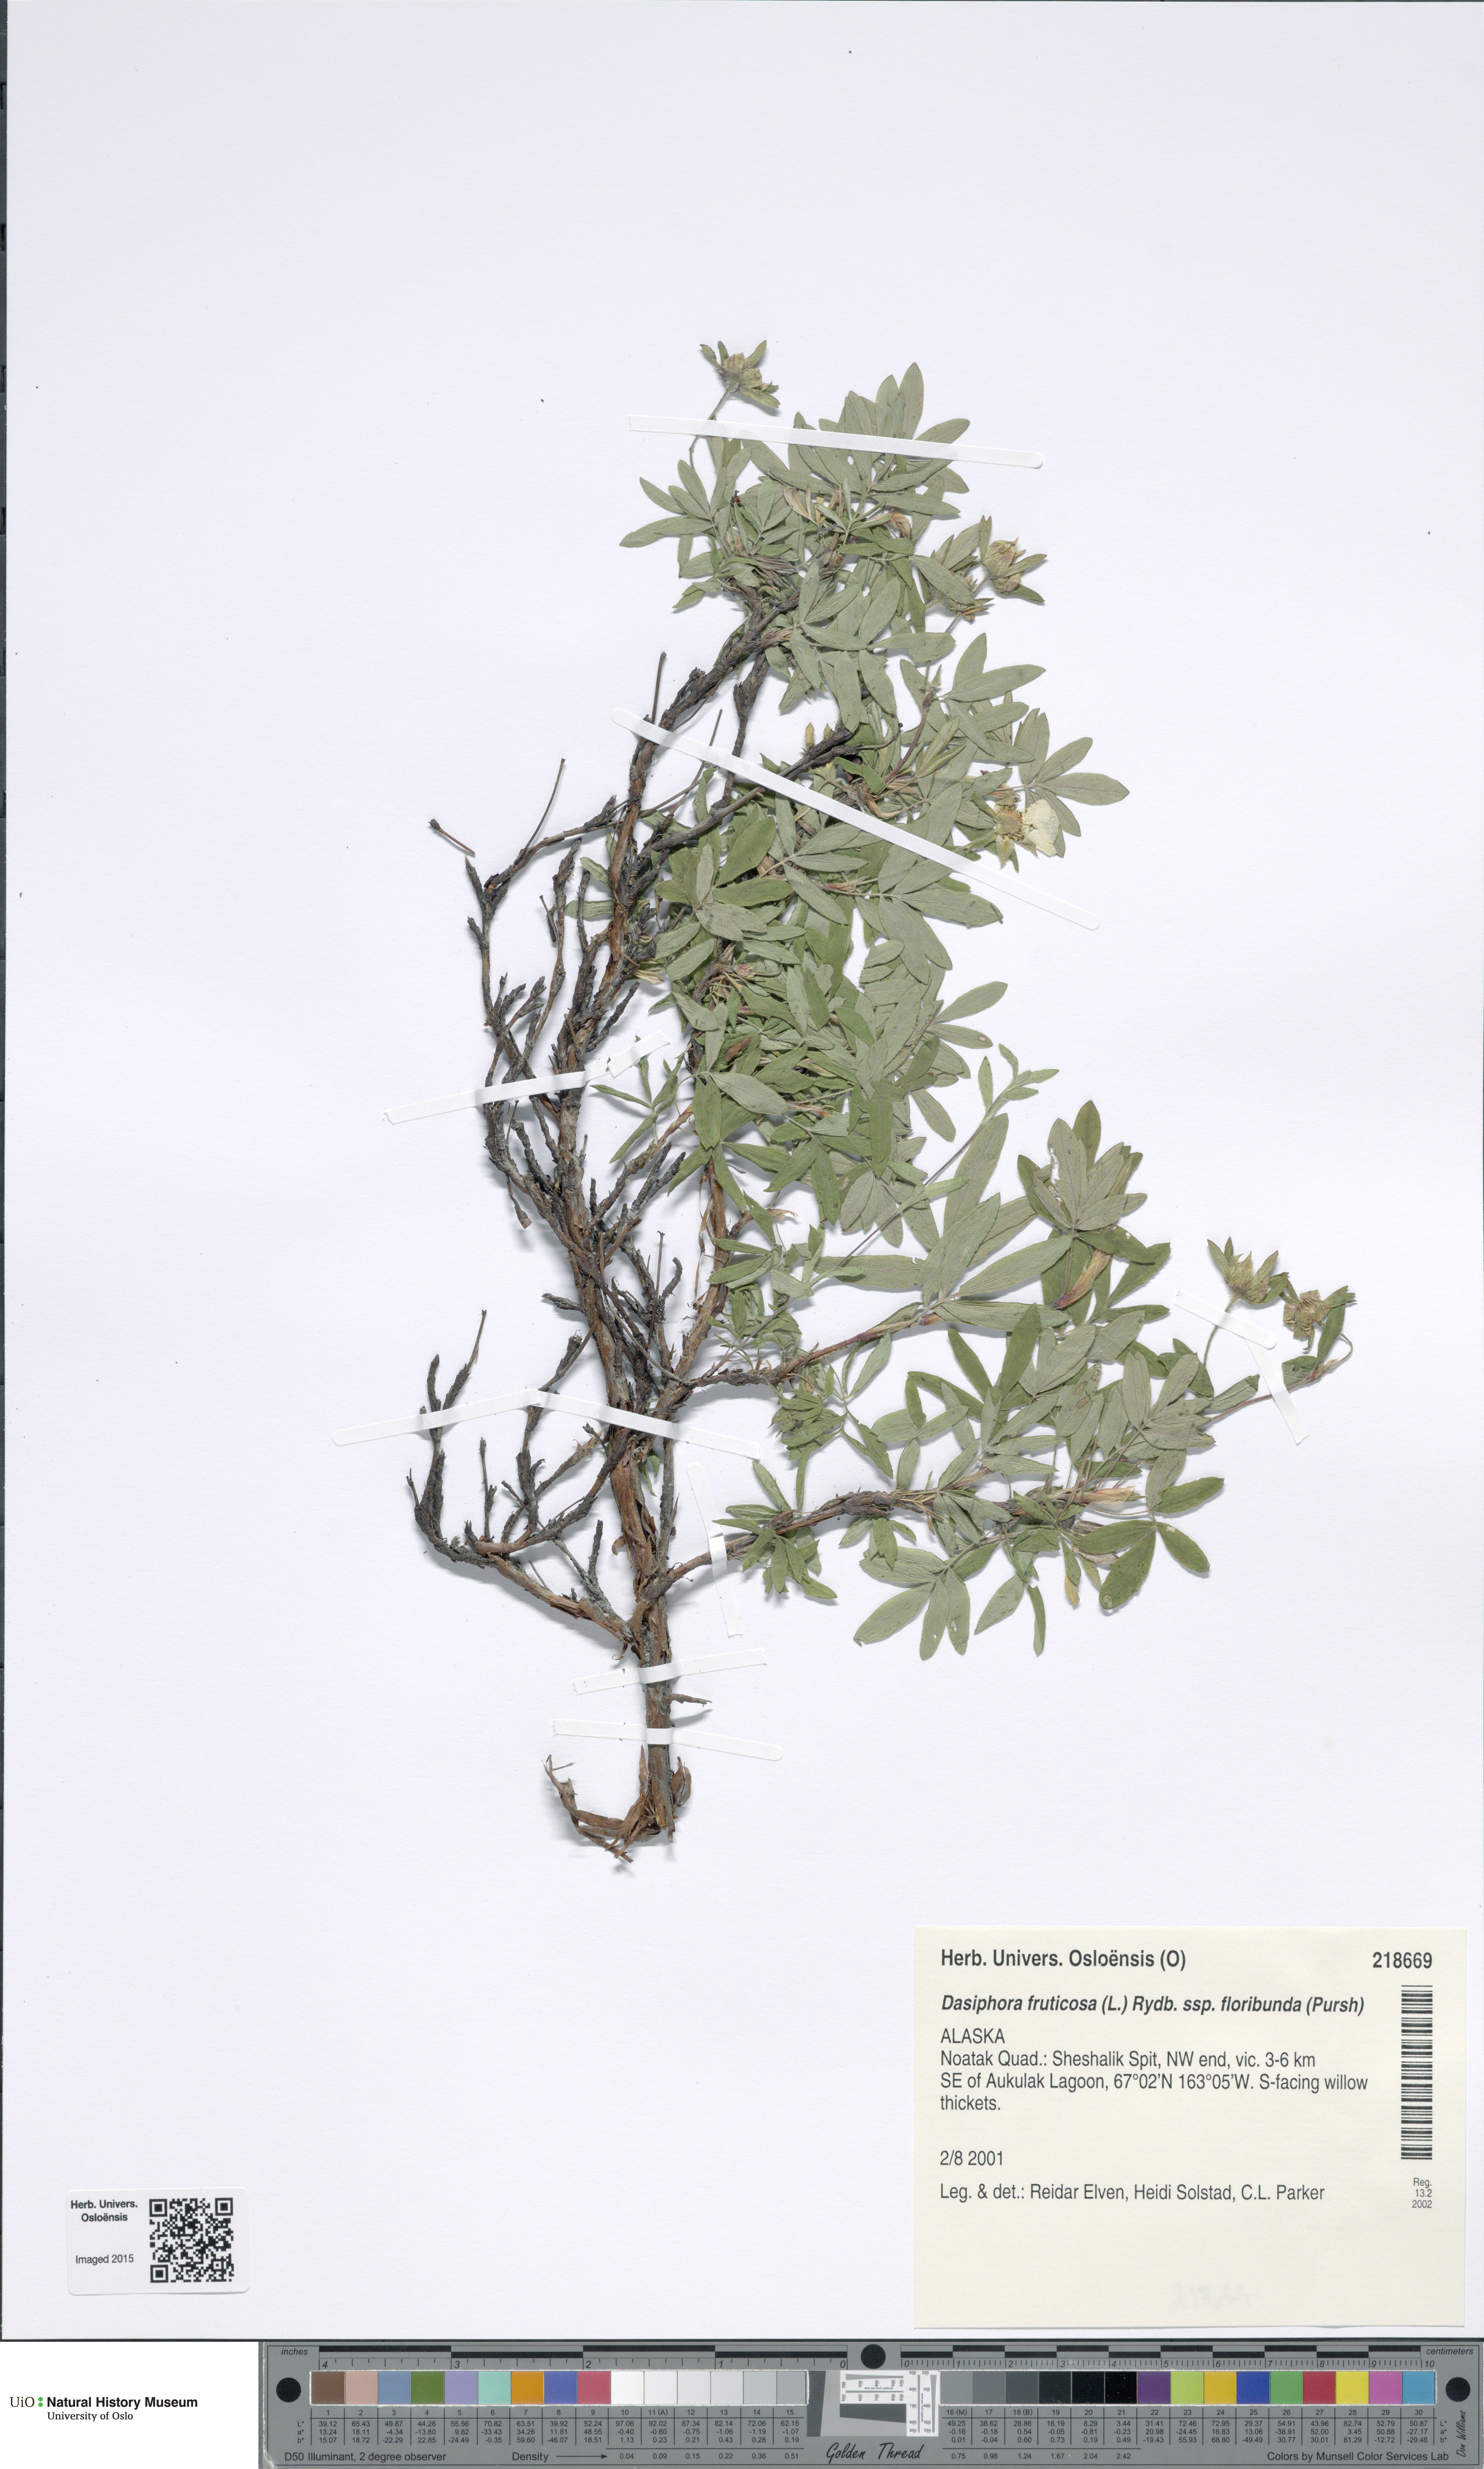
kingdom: Plantae
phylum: Tracheophyta
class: Magnoliopsida
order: Rosales
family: Rosaceae
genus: Dasiphora
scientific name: Dasiphora fruticosa
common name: Shrubby cinquefoil
